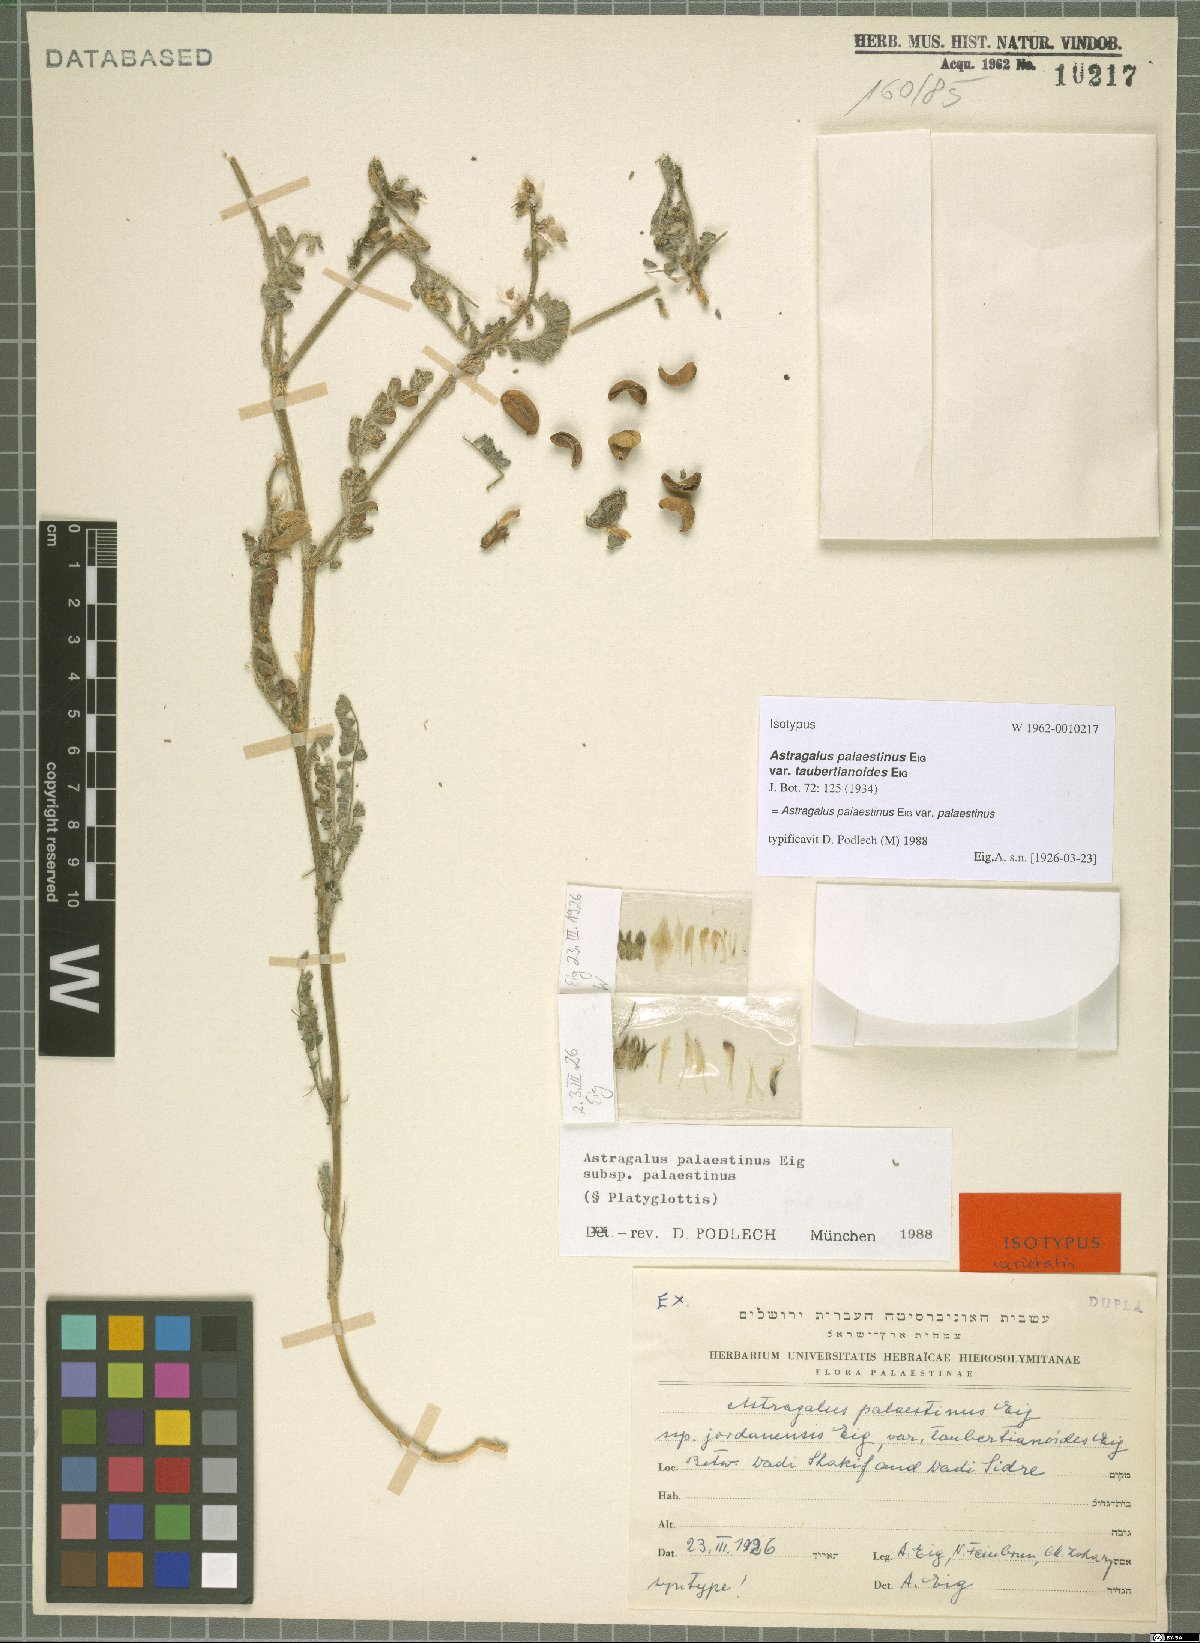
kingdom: Plantae
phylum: Tracheophyta
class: Magnoliopsida
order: Fabales
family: Fabaceae
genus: Astragalus
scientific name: Astragalus palaestinus
